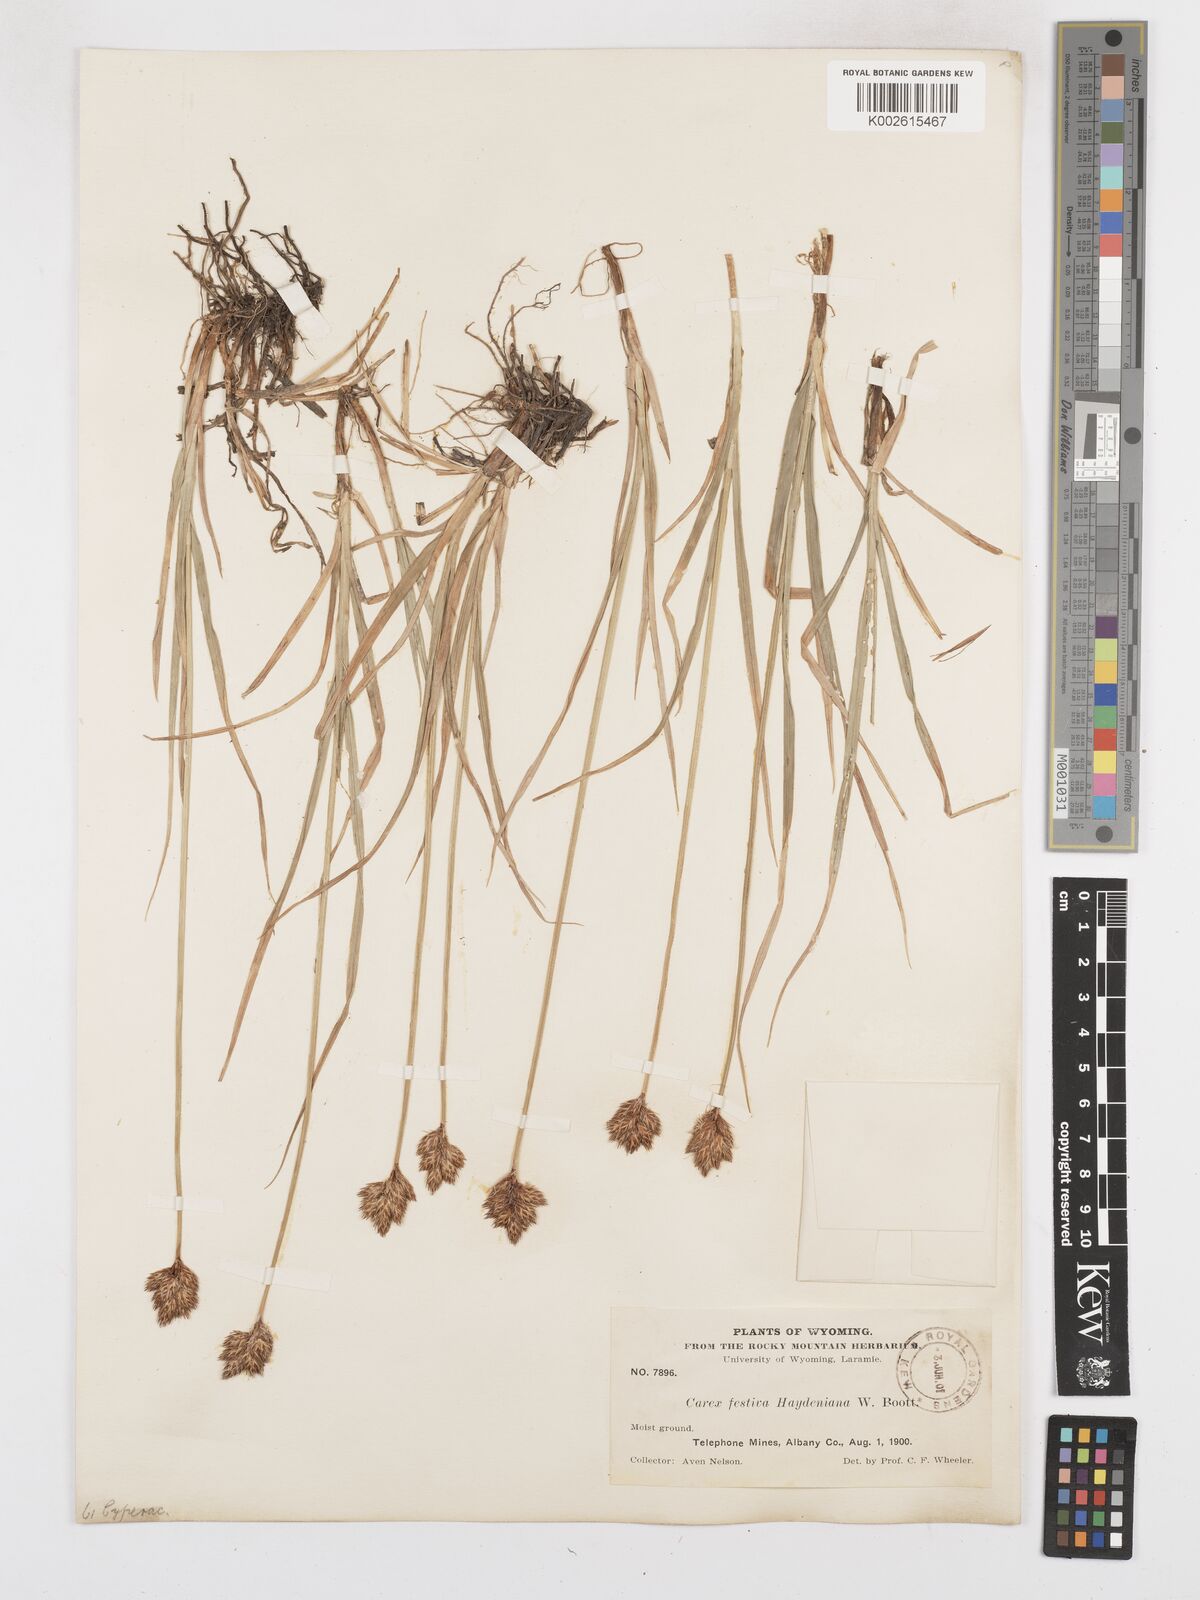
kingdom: Plantae
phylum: Tracheophyta
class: Liliopsida
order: Poales
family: Cyperaceae
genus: Carex
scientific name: Carex haydeniana
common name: Cloud sedge
